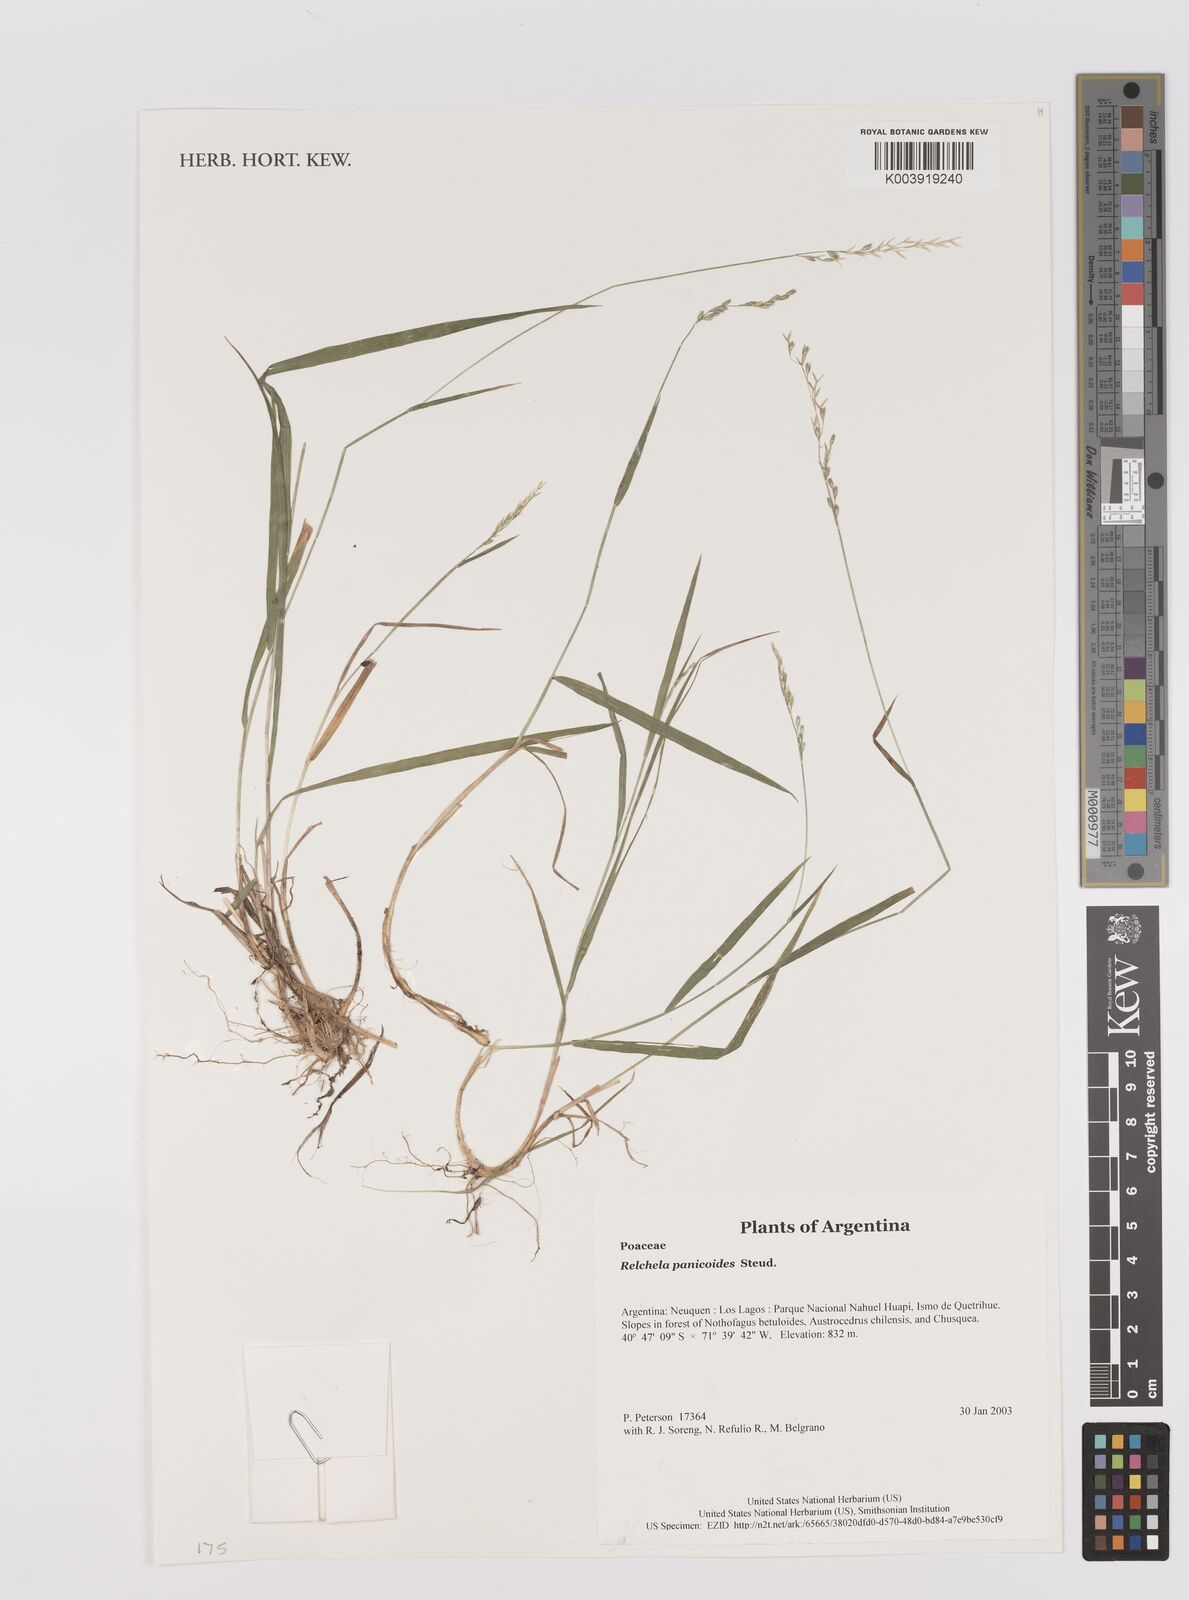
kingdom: Plantae
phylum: Tracheophyta
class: Liliopsida
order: Poales
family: Poaceae
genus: Relchela
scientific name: Relchela panicoides
